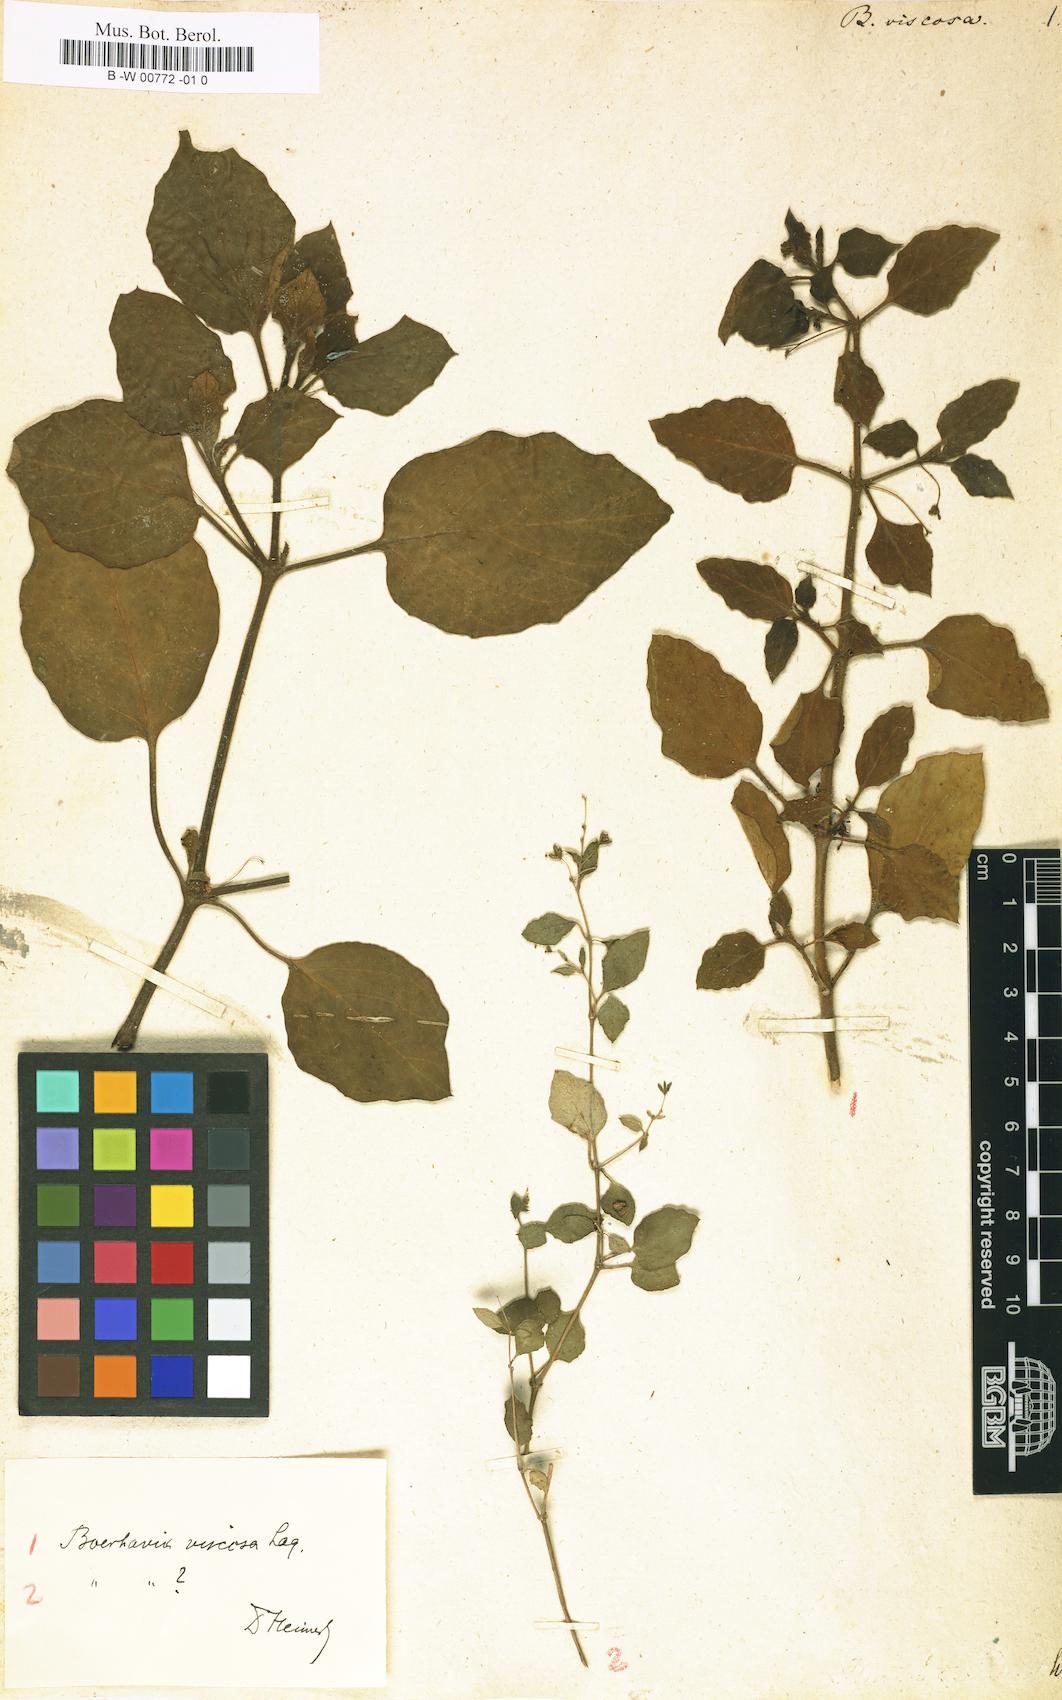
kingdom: Plantae
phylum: Tracheophyta
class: Magnoliopsida
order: Caryophyllales
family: Nyctaginaceae
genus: Boerhavia
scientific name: Boerhavia coccinea
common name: Scarlet spiderling
